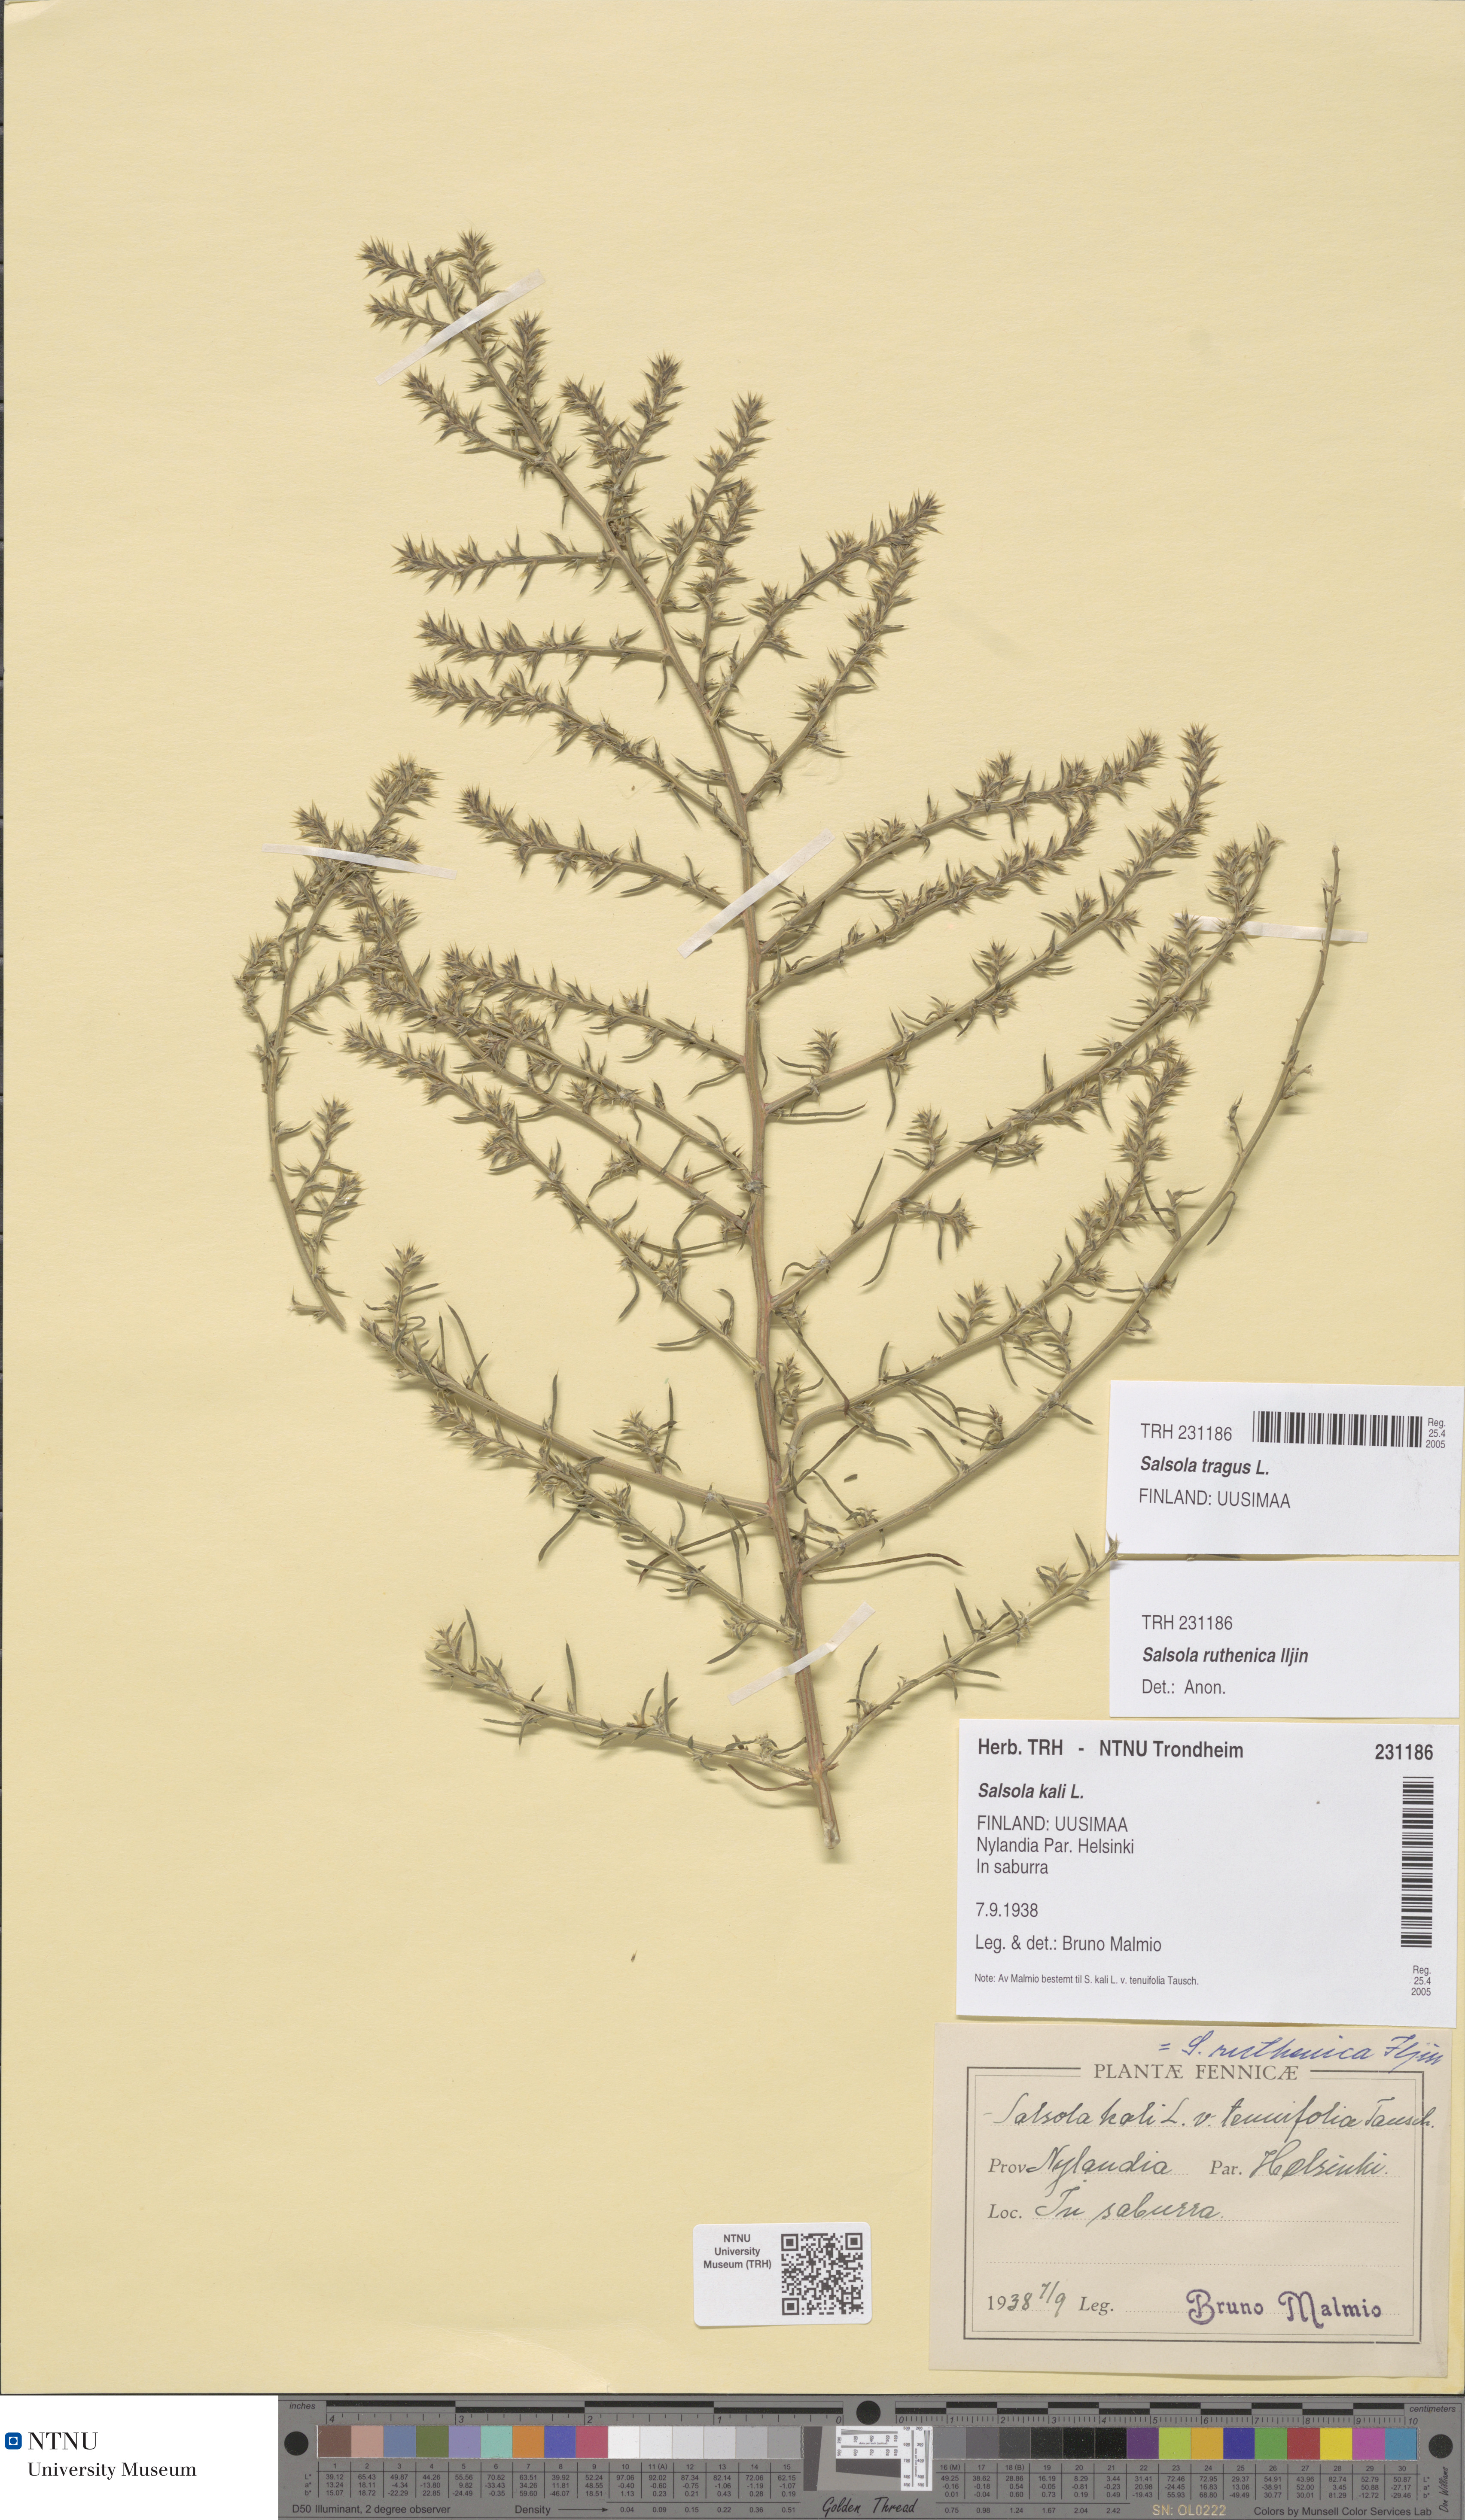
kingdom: Plantae
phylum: Tracheophyta
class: Magnoliopsida
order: Caryophyllales
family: Amaranthaceae
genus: Salsola
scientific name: Salsola tragus
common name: Prickly russian thistle
